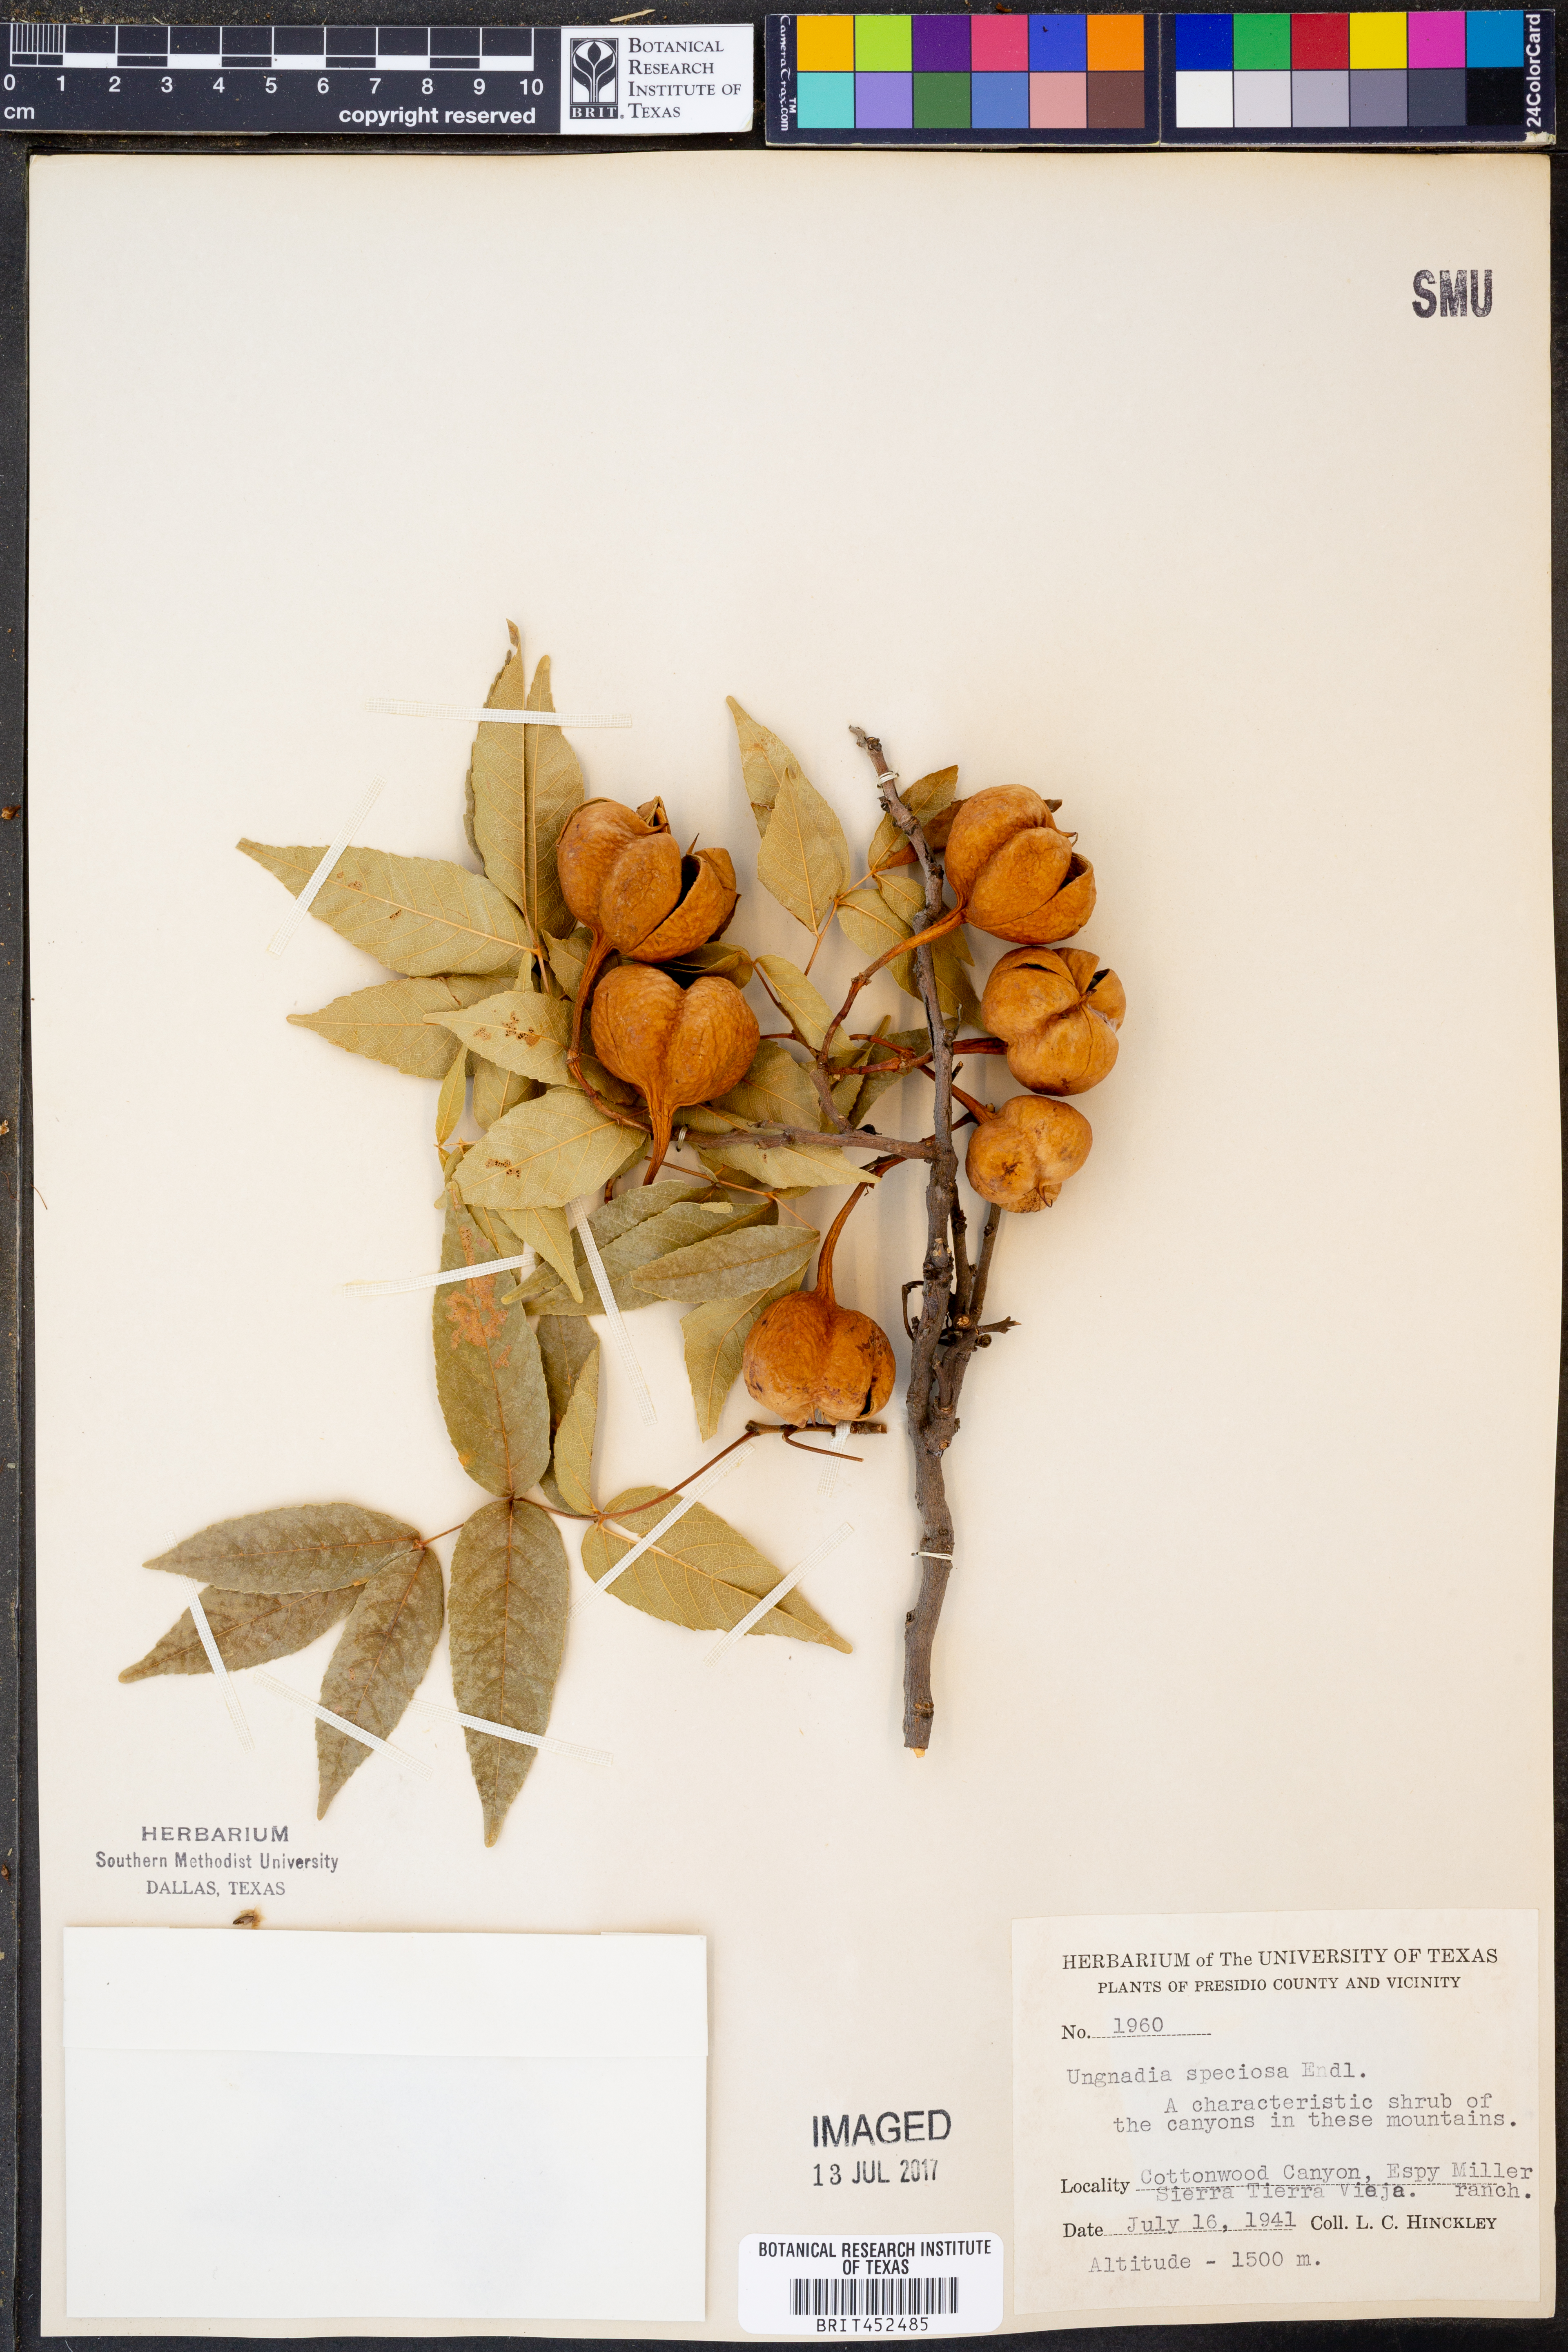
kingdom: Plantae
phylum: Tracheophyta
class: Magnoliopsida
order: Sapindales
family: Sapindaceae
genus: Ungnadia
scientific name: Ungnadia speciosa
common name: Texas-buckeye
